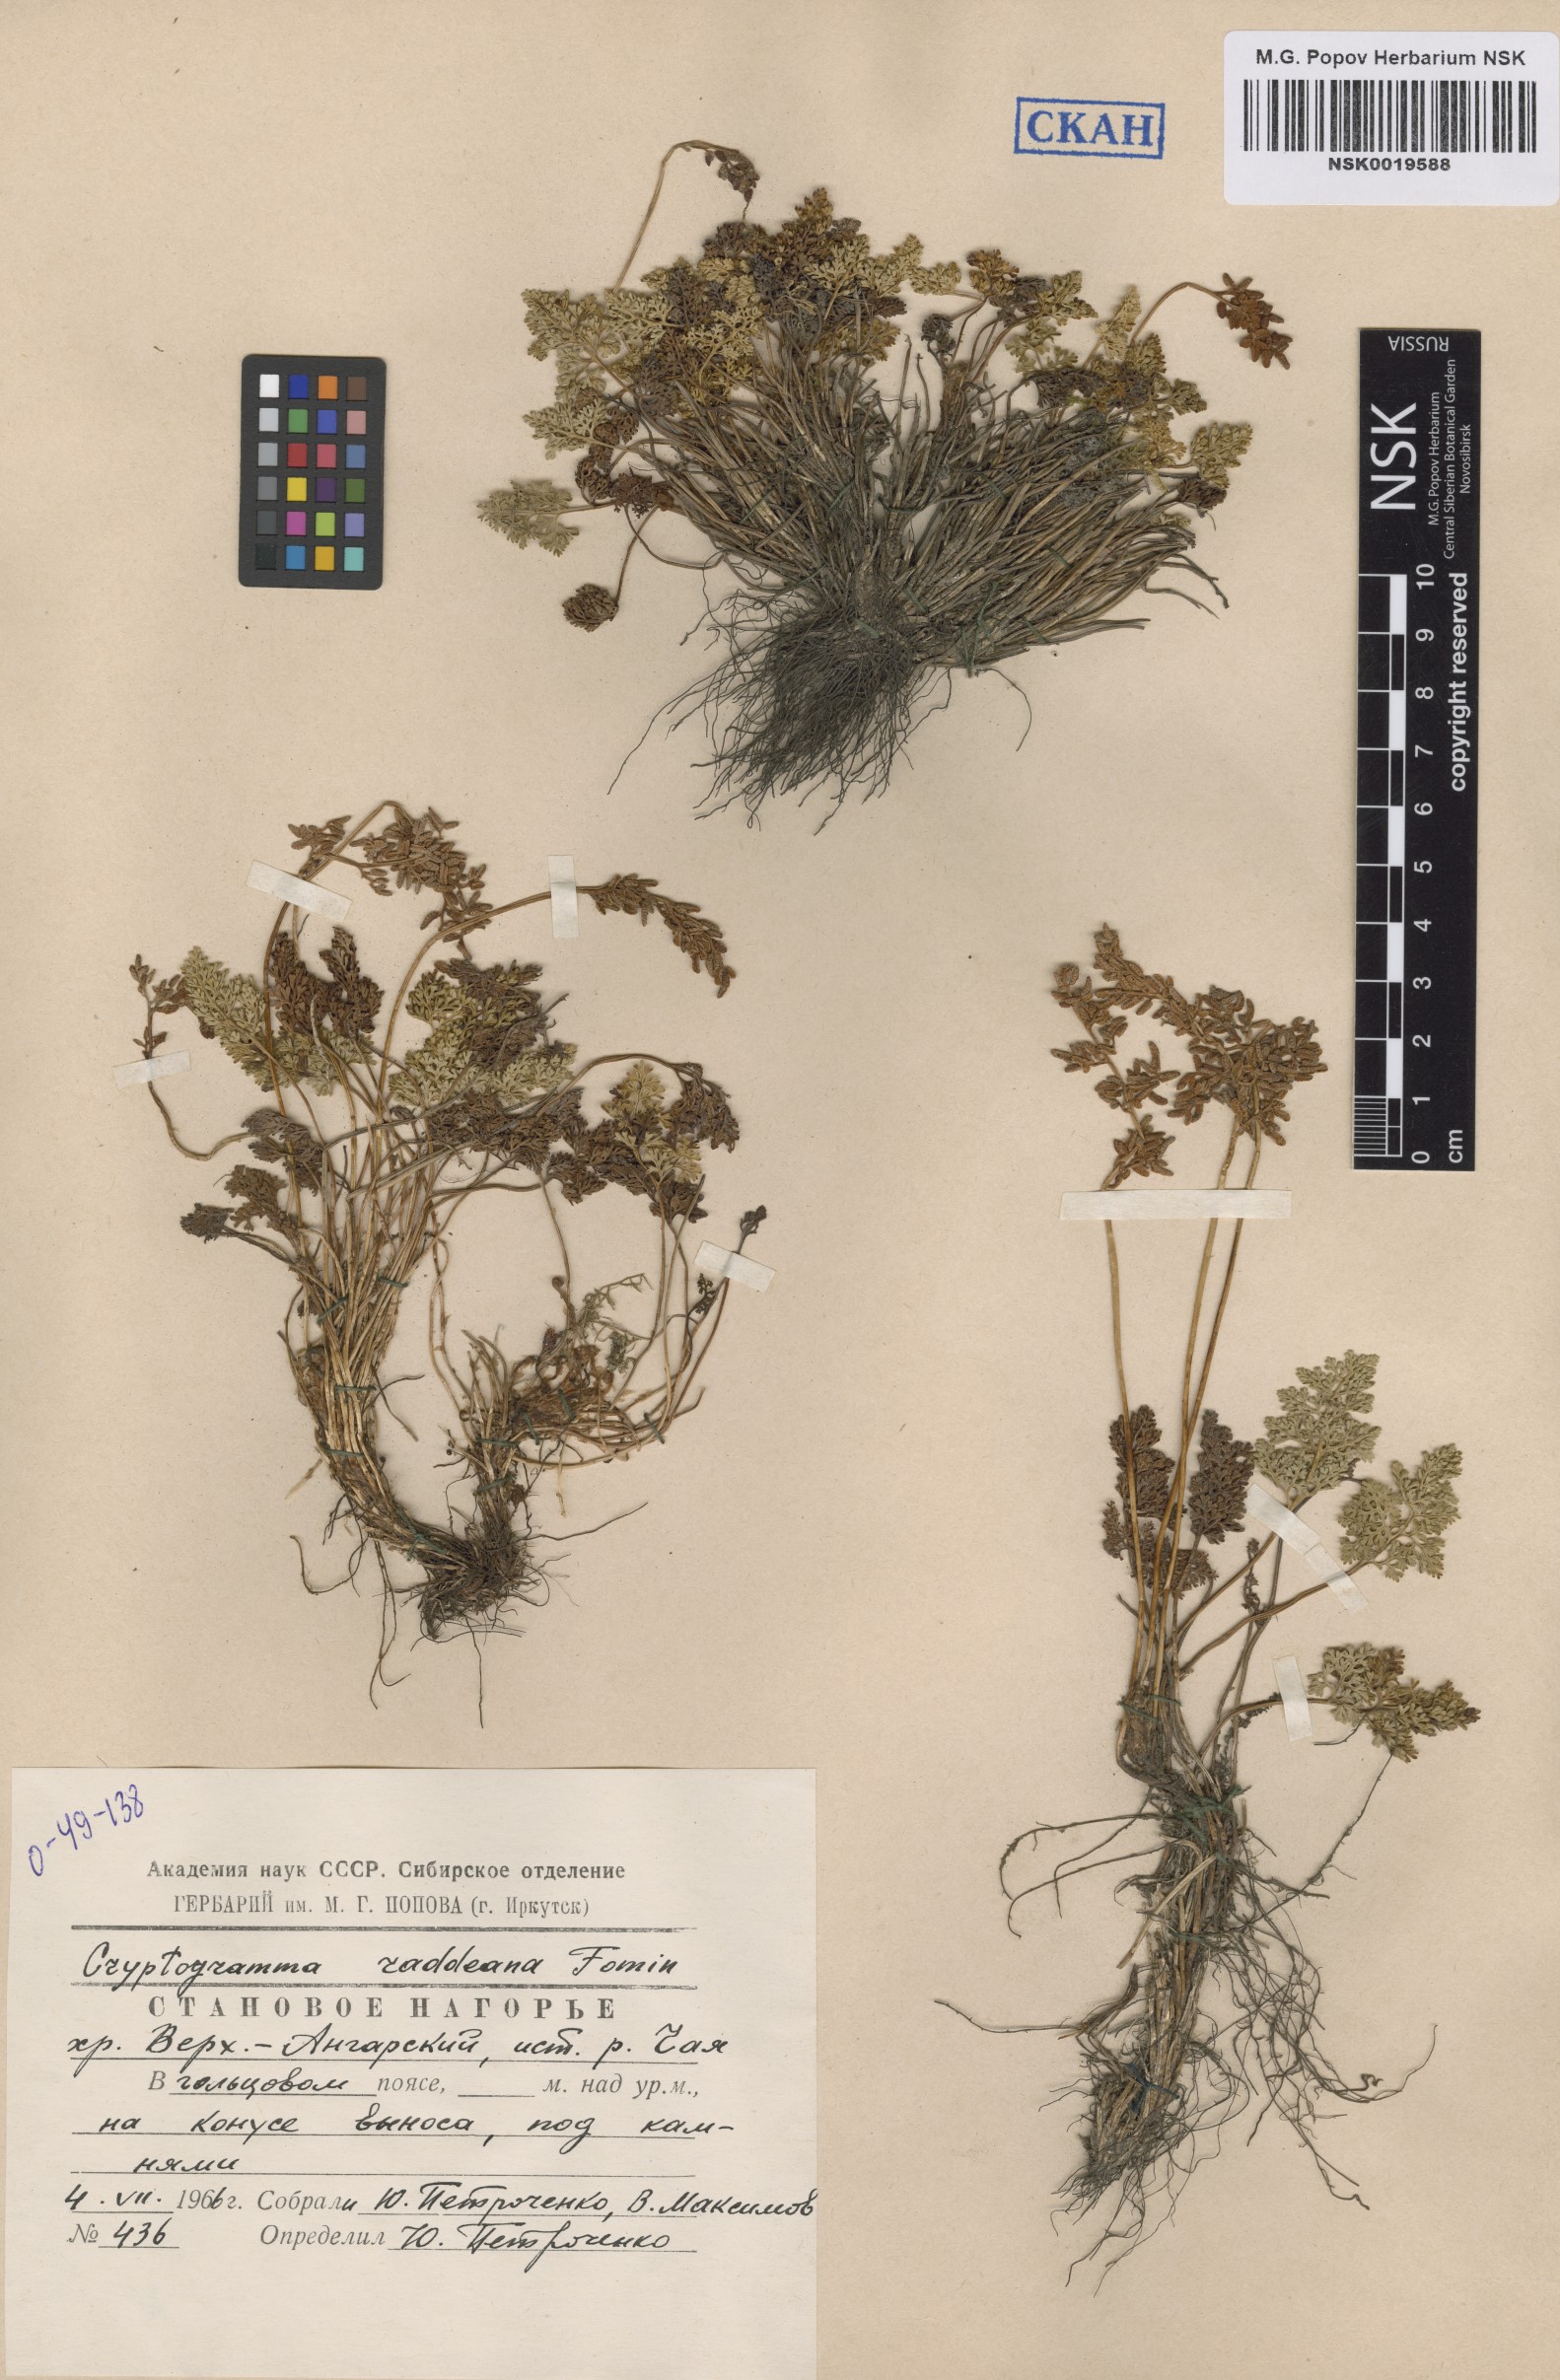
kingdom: Plantae
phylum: Tracheophyta
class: Polypodiopsida
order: Polypodiales
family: Pteridaceae
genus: Cryptogramma
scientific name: Cryptogramma brunoniana
